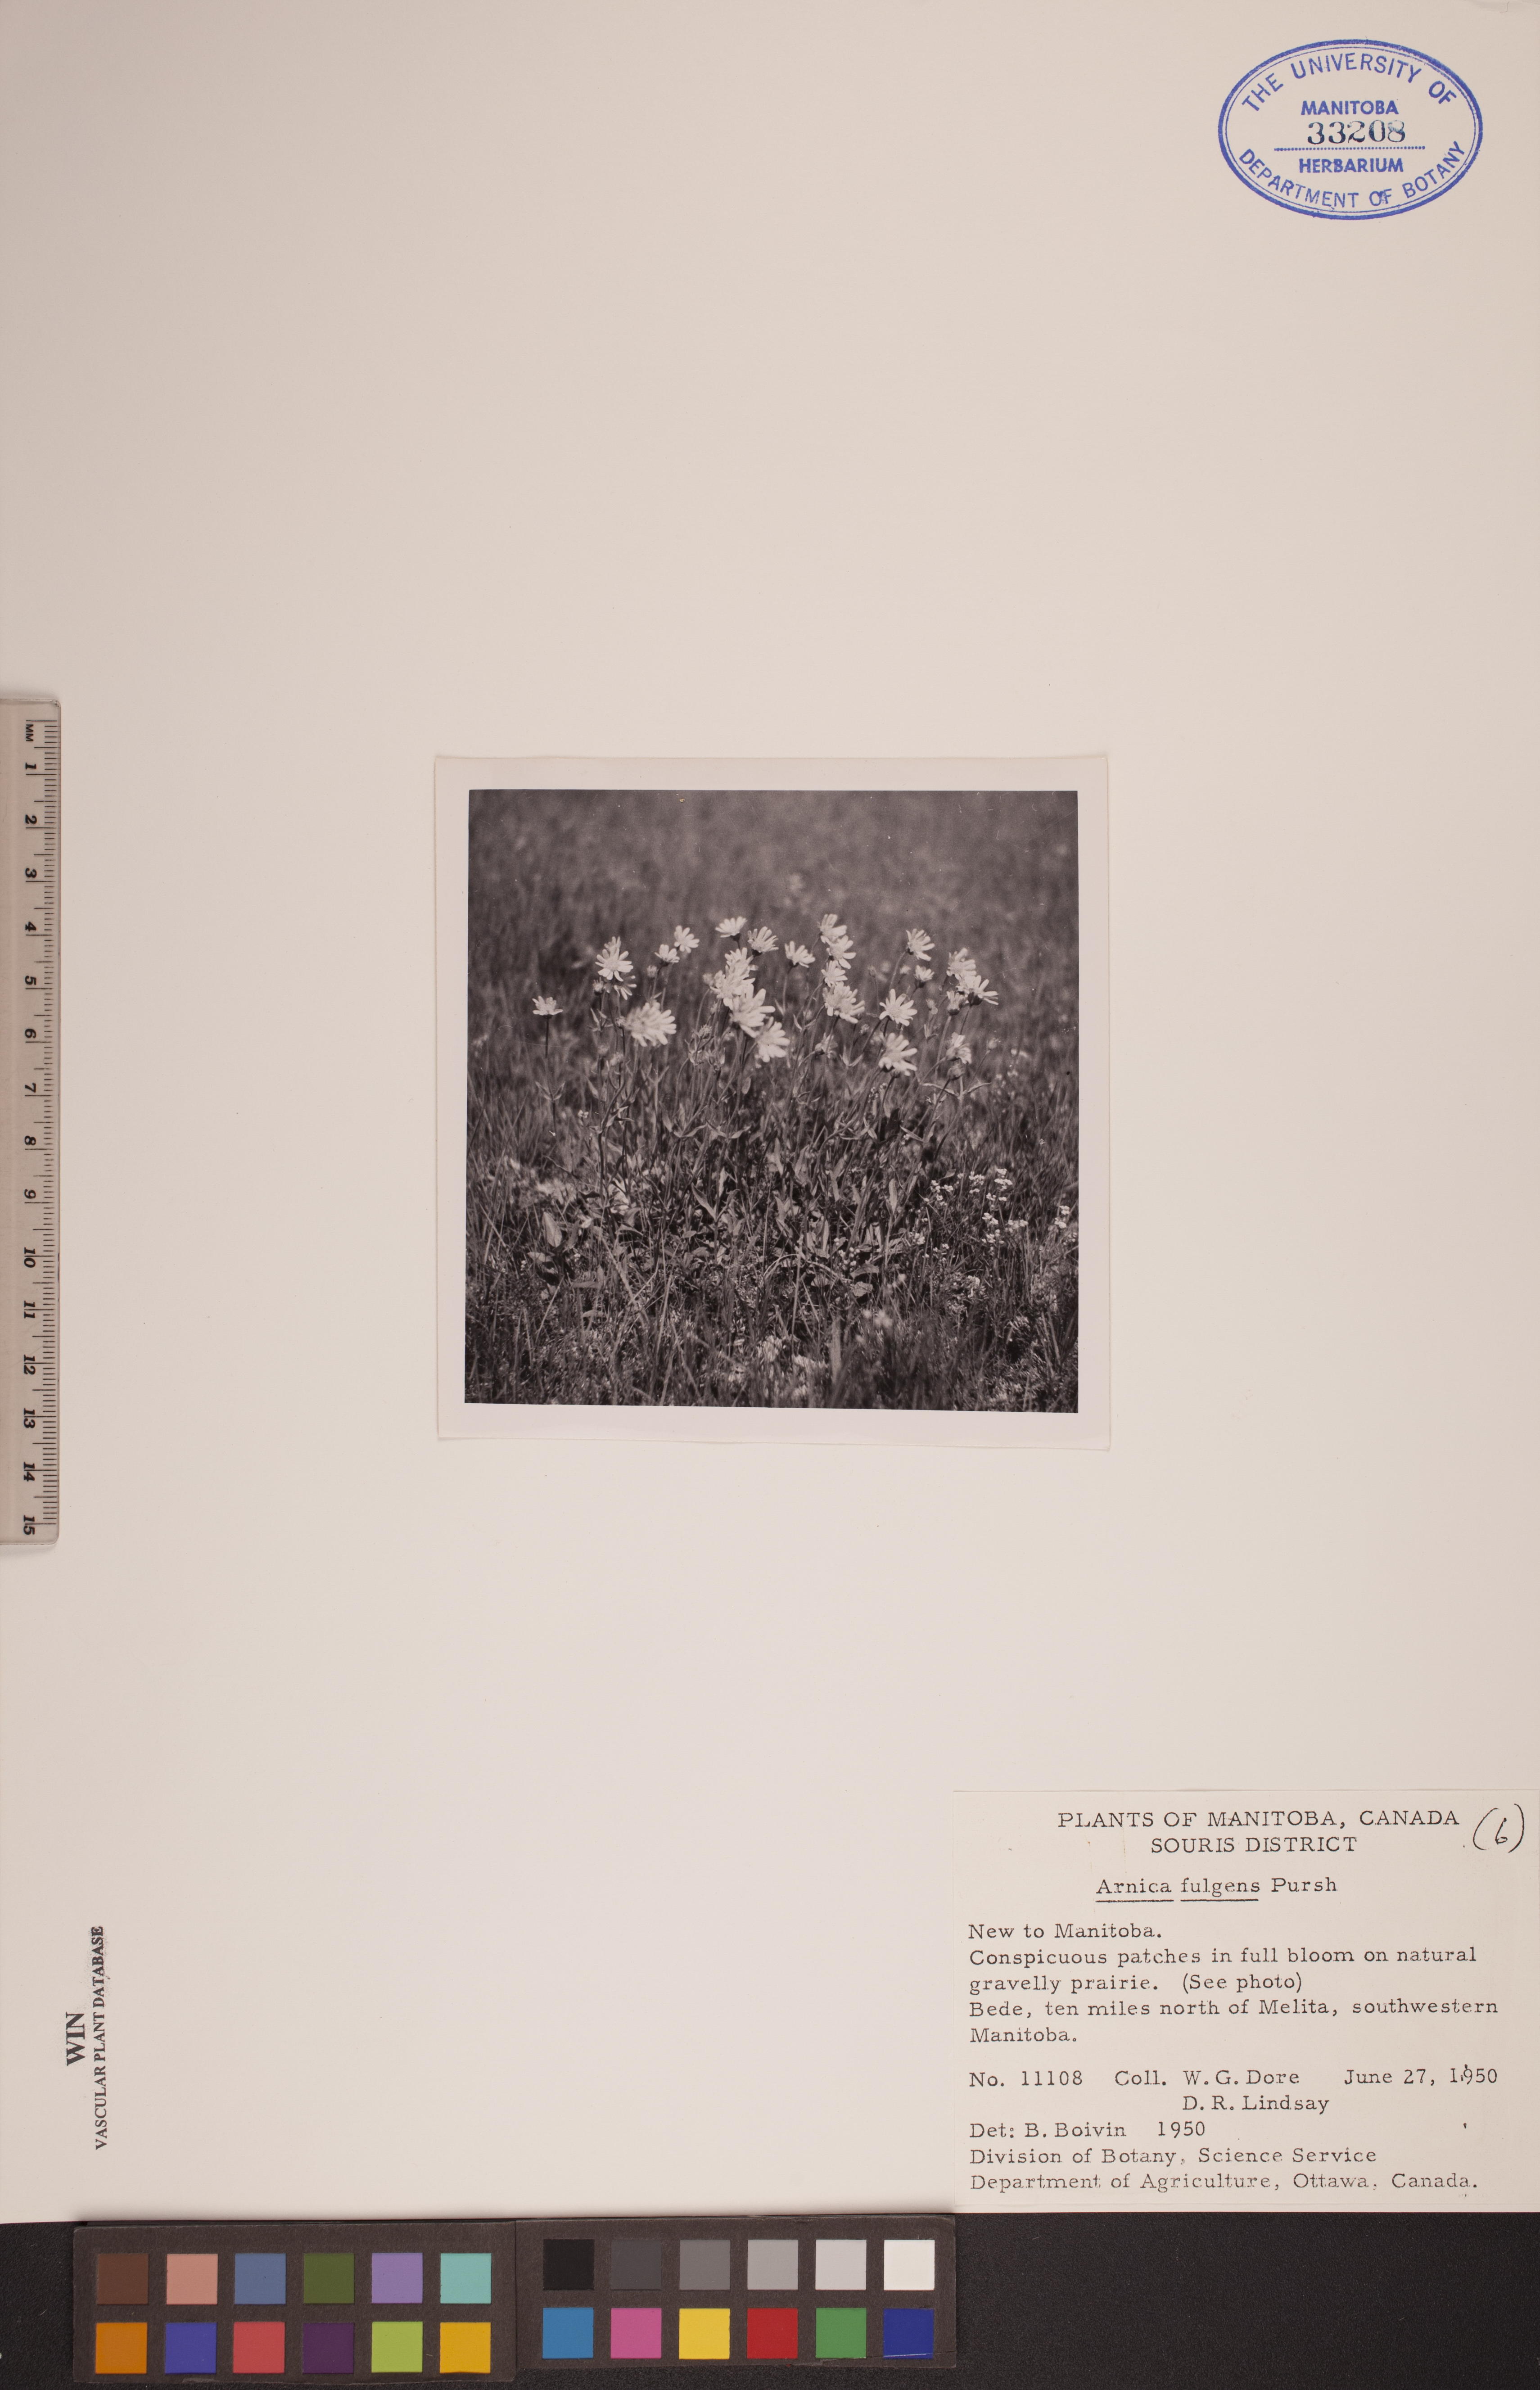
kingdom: Plantae
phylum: Tracheophyta
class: Magnoliopsida
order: Asterales
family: Asteraceae
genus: Arnica
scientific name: Arnica fulgens
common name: Foothill arnica
